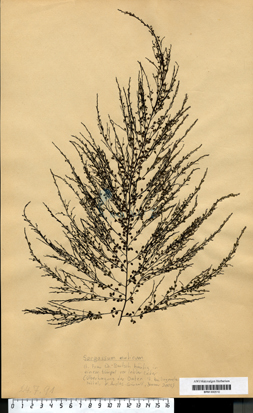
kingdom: Chromista
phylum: Ochrophyta
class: Phaeophyceae
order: Fucales
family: Sargassaceae
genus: Sargassum
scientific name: Sargassum muticum
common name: Japweed
